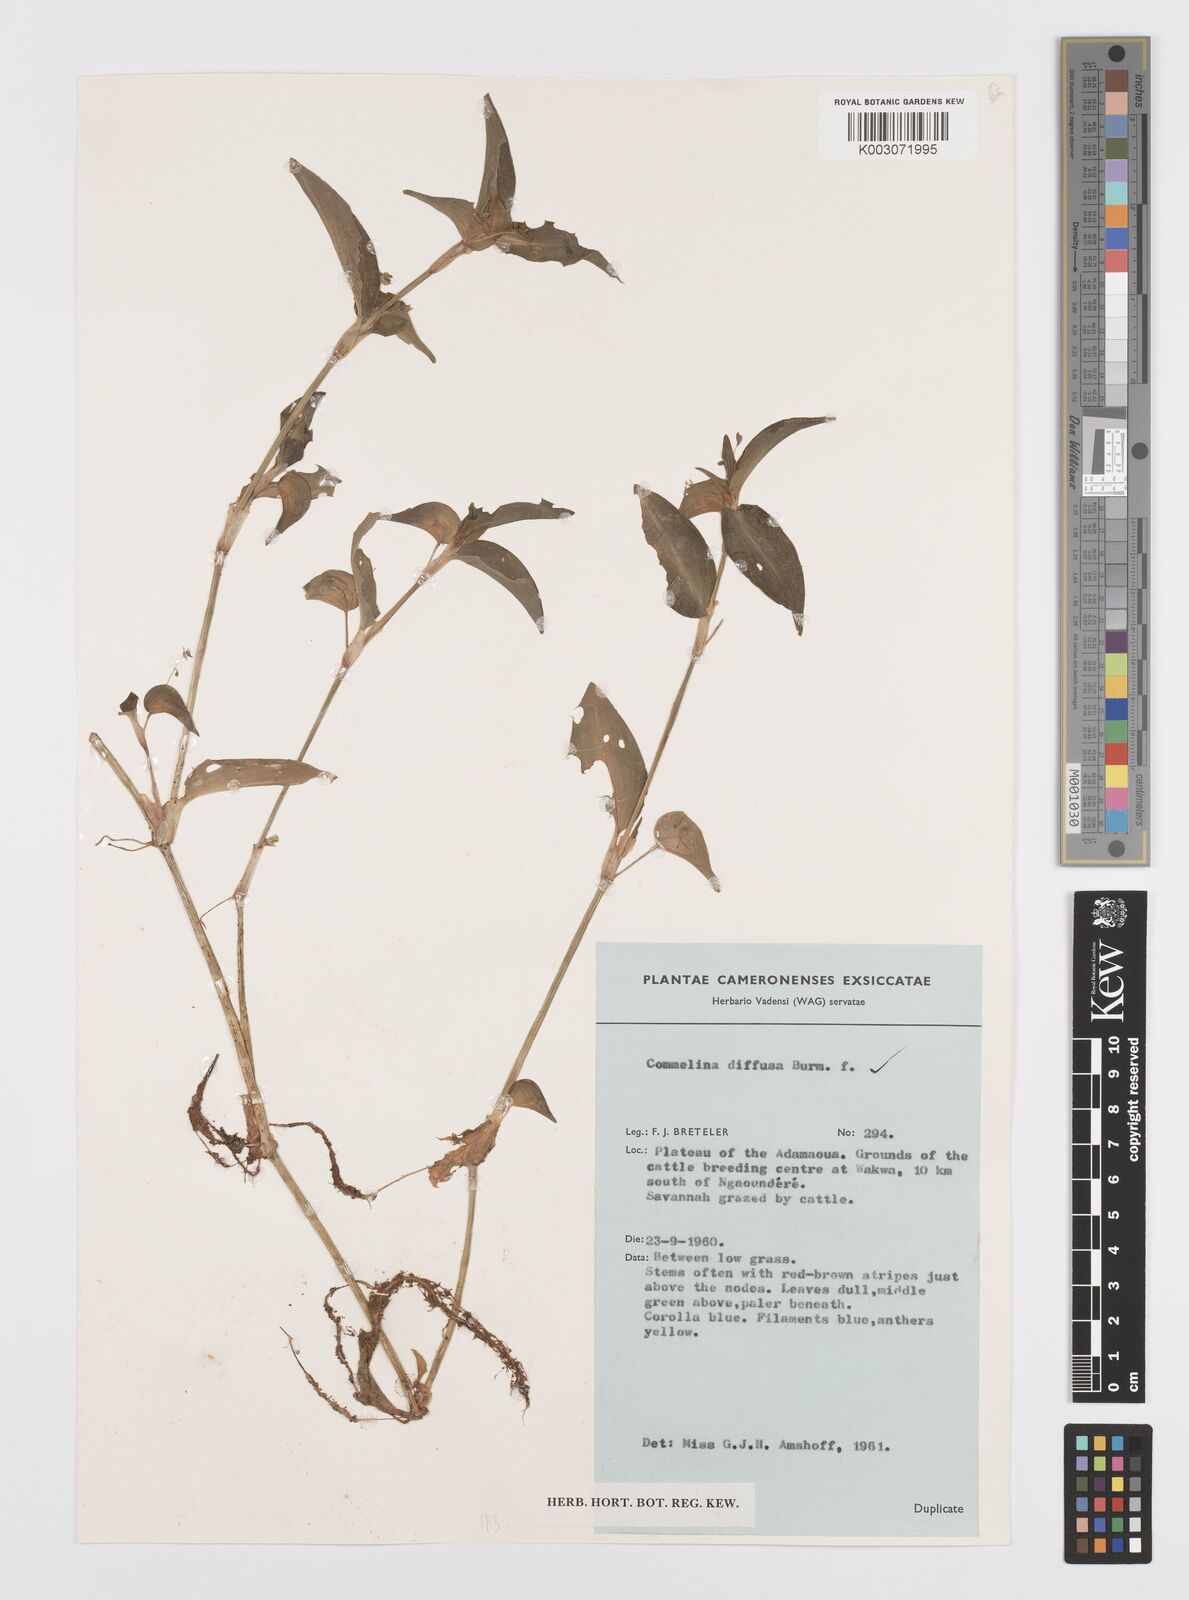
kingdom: Plantae
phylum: Tracheophyta
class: Liliopsida
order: Commelinales
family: Commelinaceae
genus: Commelina
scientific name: Commelina diffusa
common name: Climbing dayflower
